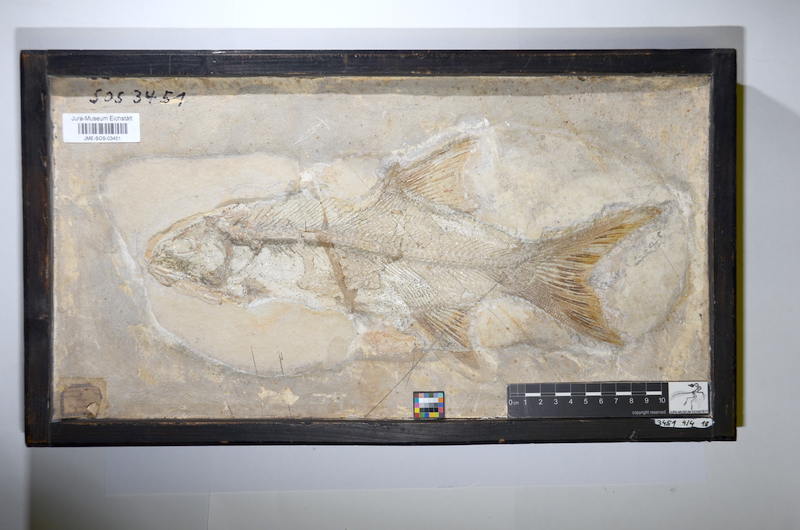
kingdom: Animalia
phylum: Chordata
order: Amiiformes
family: Ionoscopidae
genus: Ionoscopus
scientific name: Ionoscopus cyprinoides
